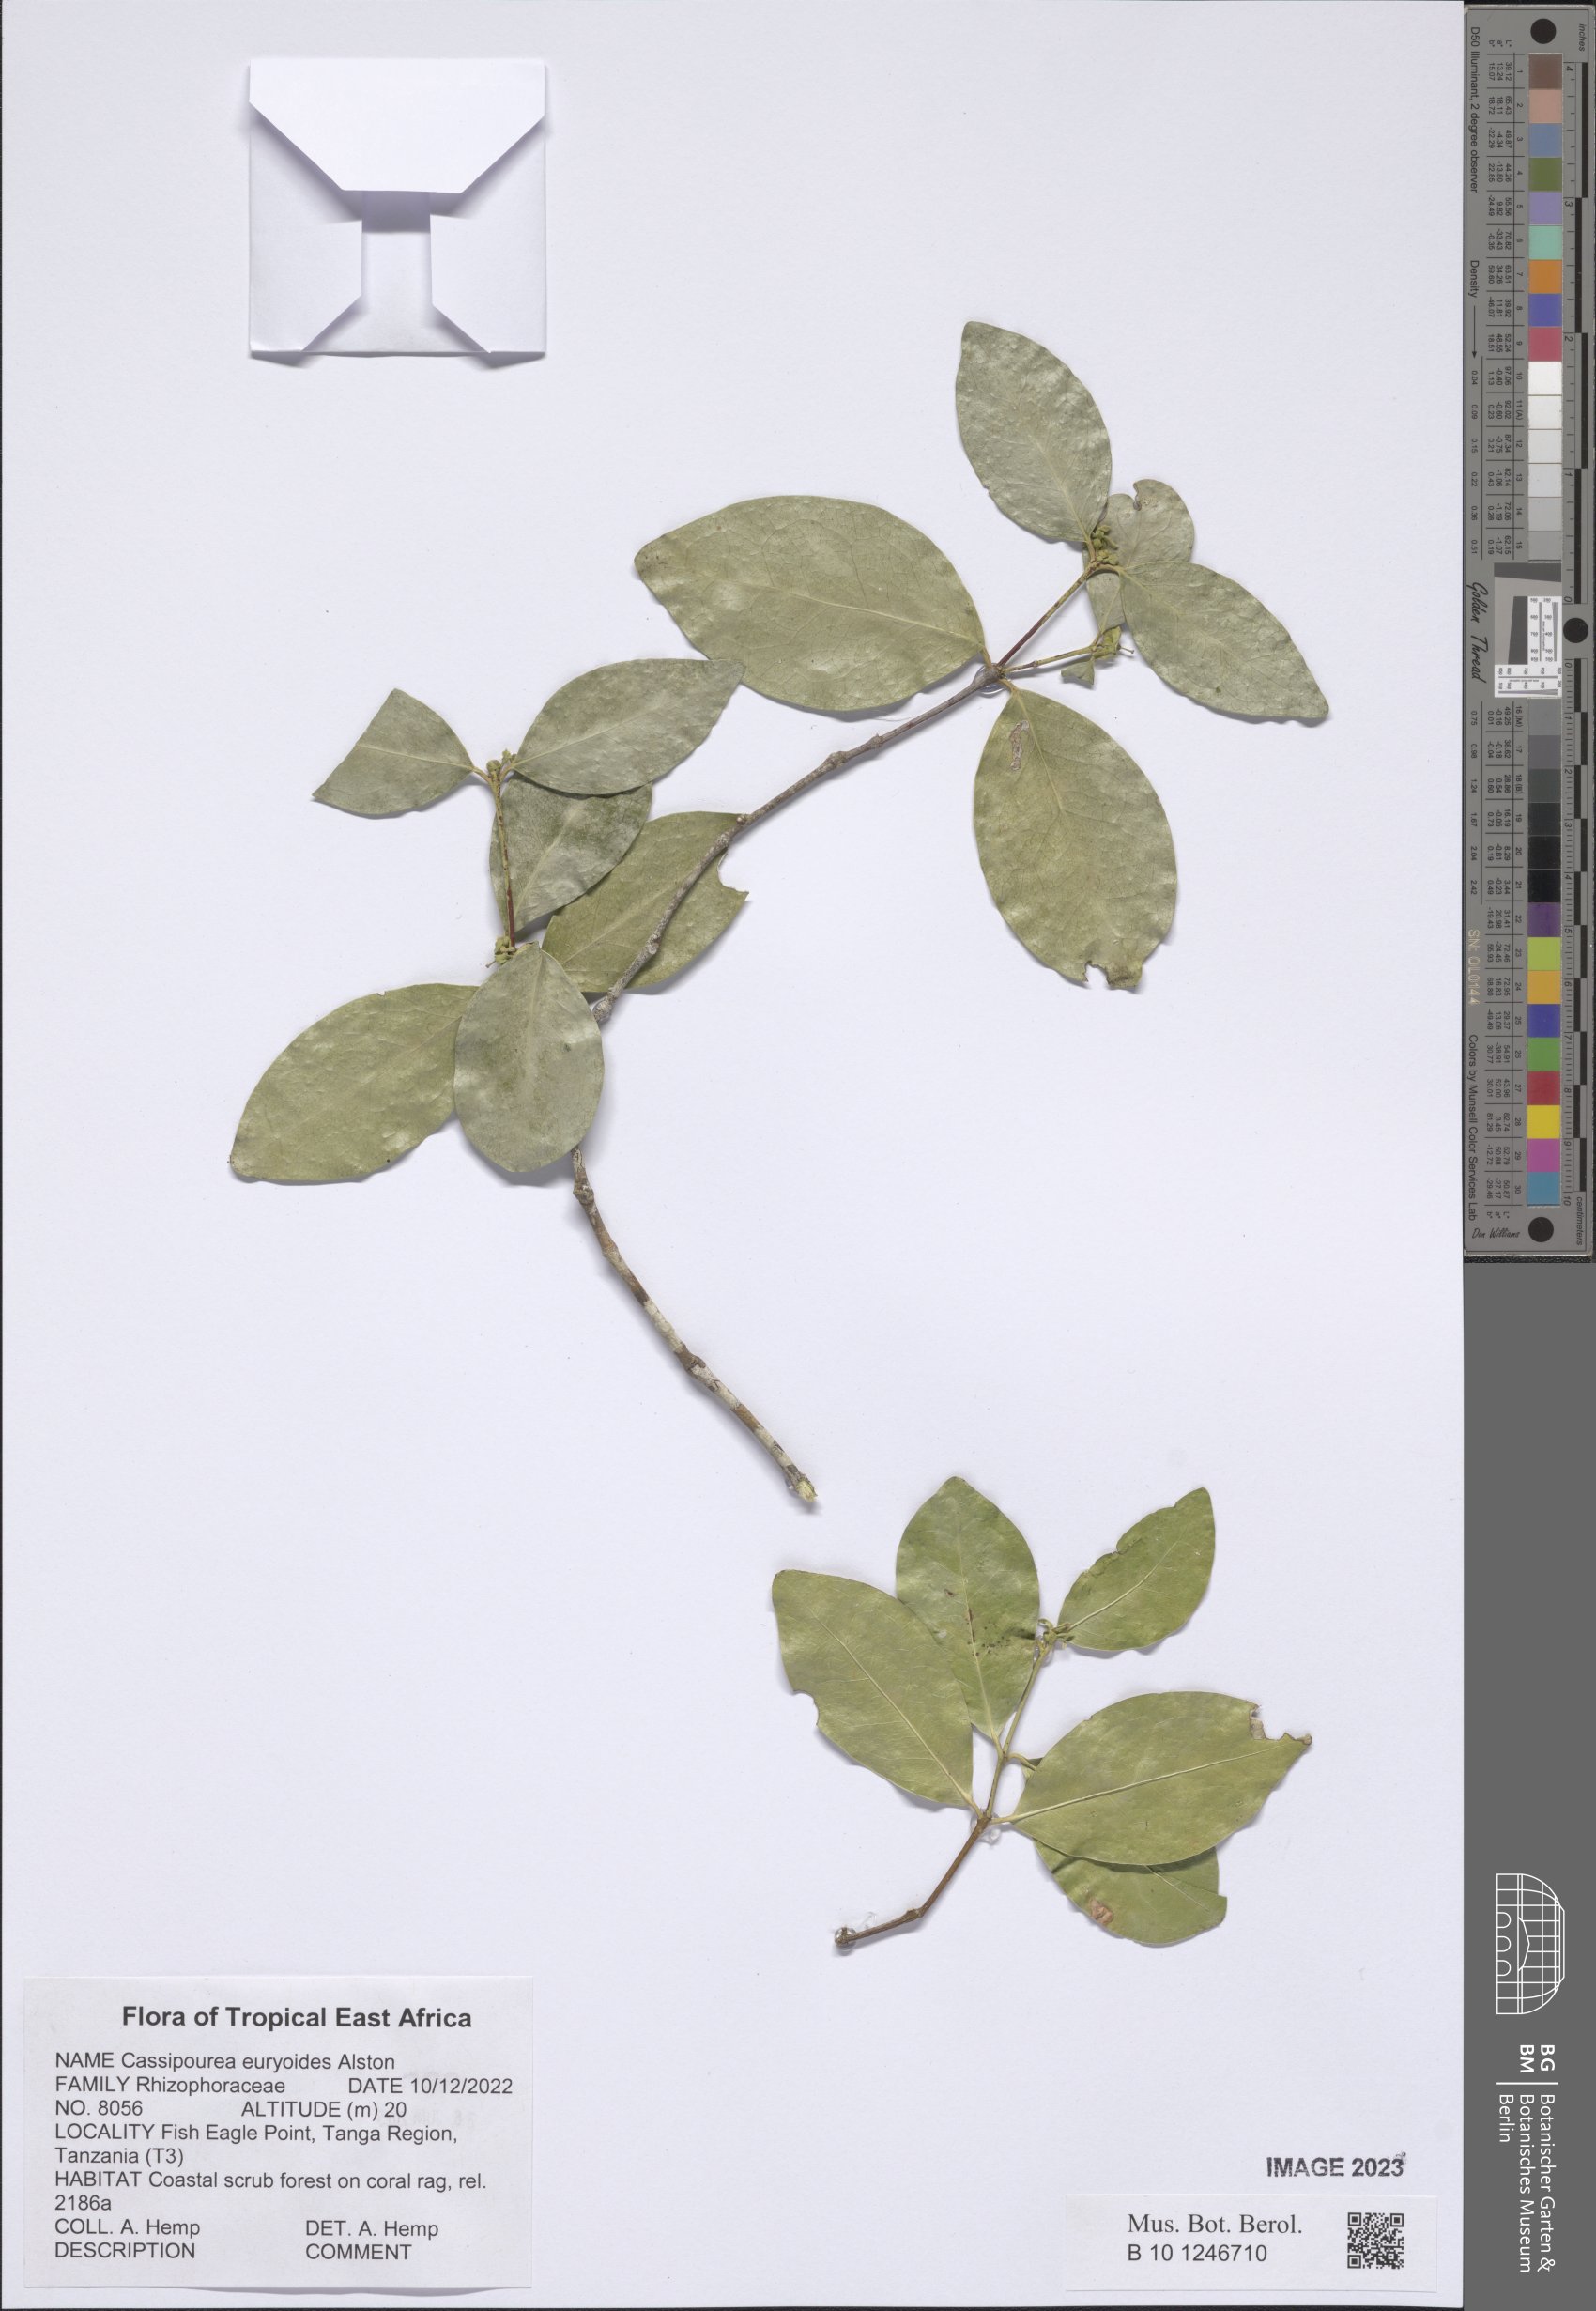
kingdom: Plantae
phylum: Tracheophyta
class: Magnoliopsida
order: Malpighiales
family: Rhizophoraceae
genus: Cassipourea
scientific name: Cassipourea euryoides
